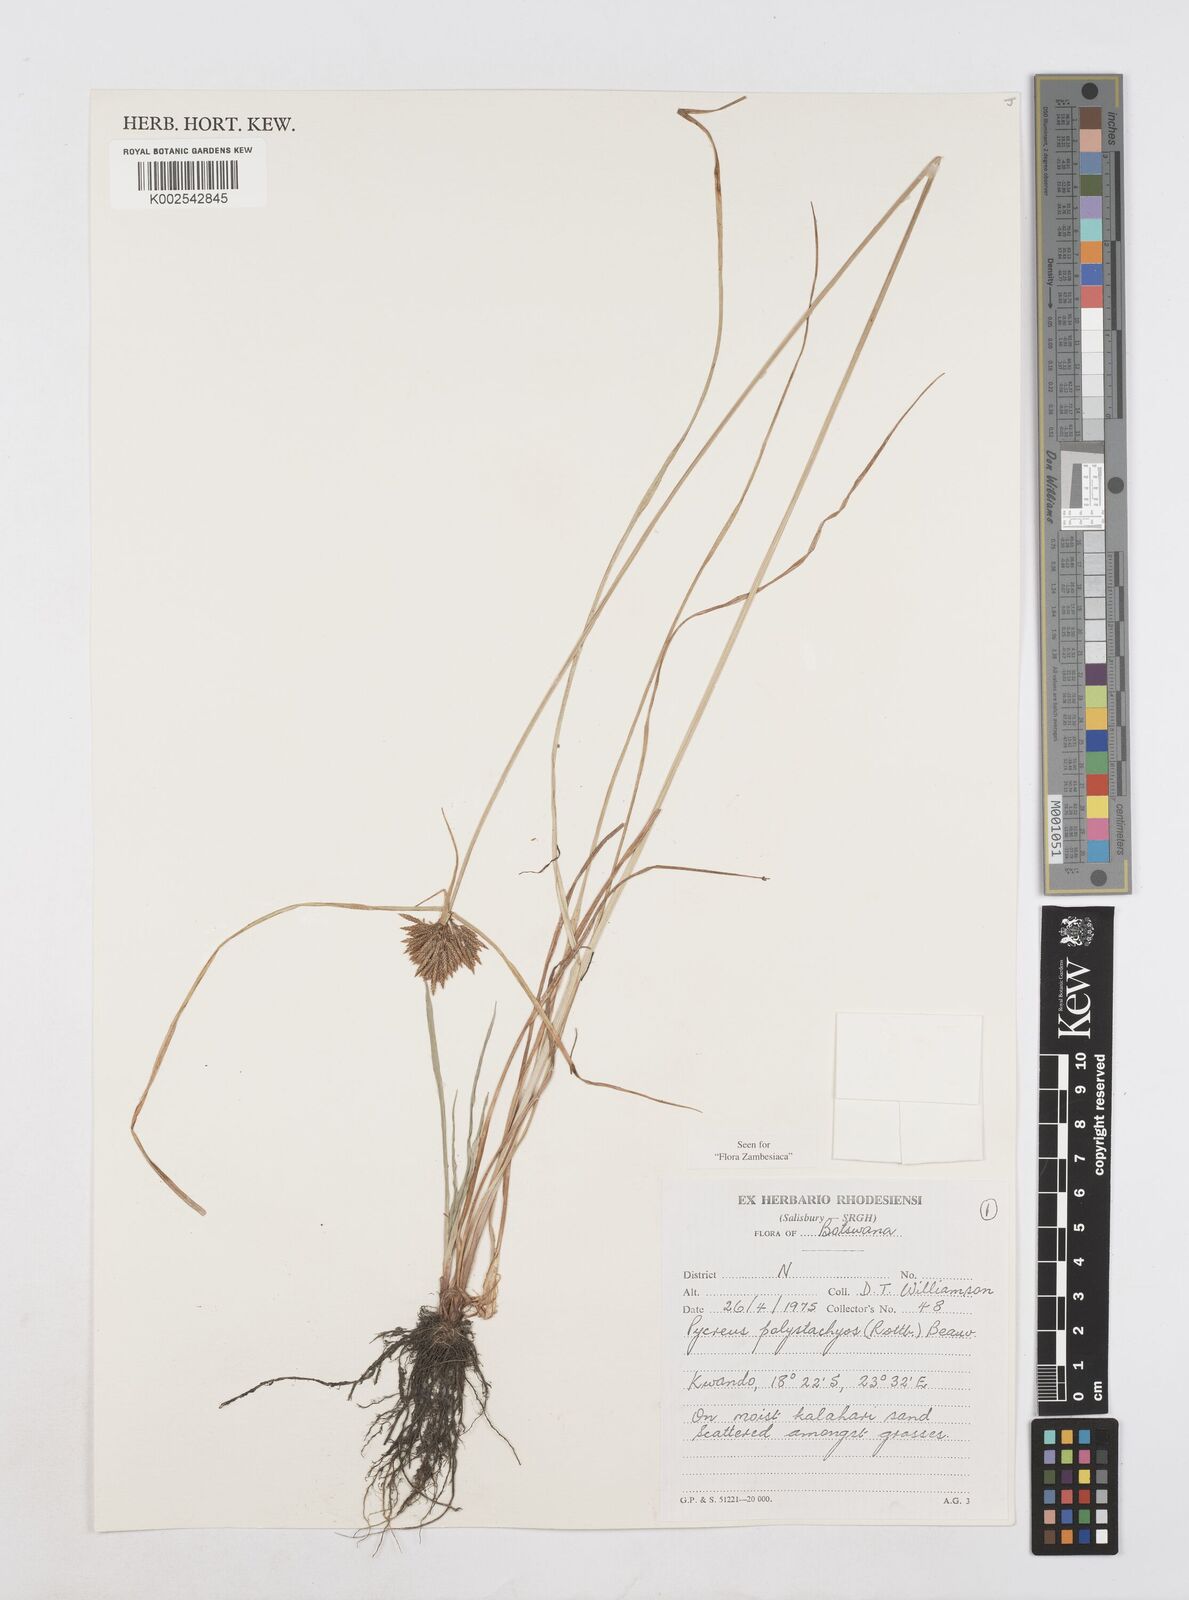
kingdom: Plantae
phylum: Tracheophyta
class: Liliopsida
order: Poales
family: Cyperaceae
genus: Cyperus
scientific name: Cyperus polystachyos
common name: Bunchy flat sedge
